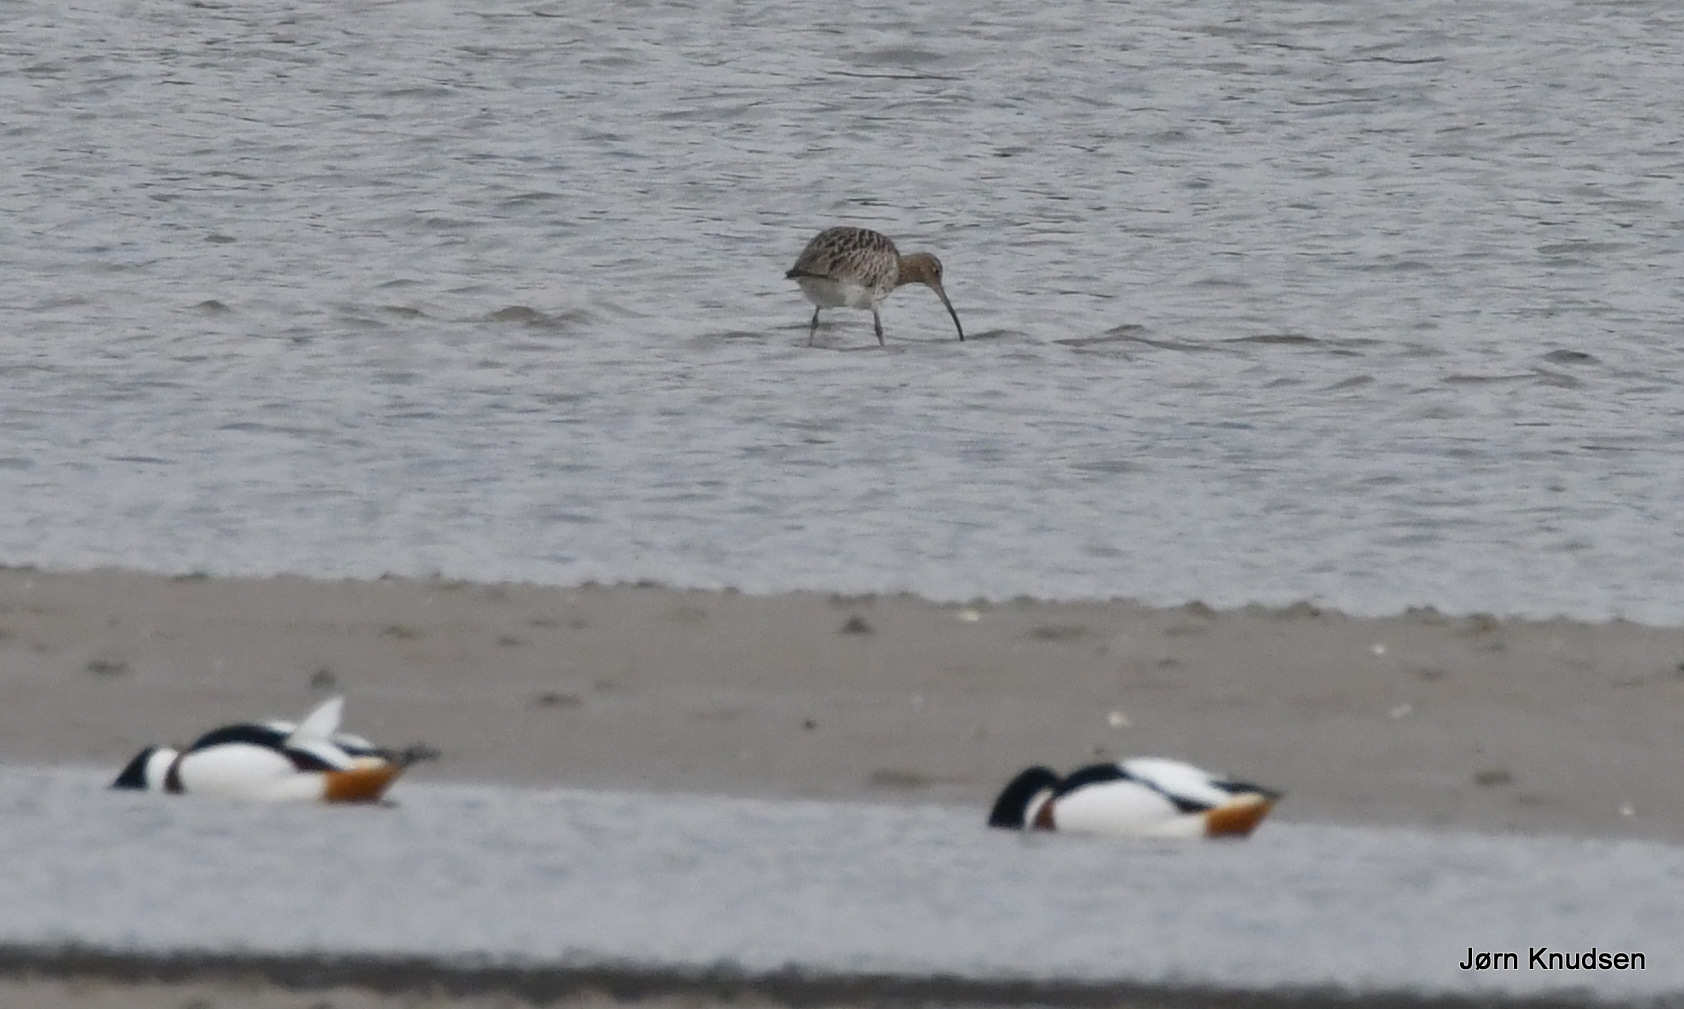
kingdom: Animalia
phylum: Chordata
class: Aves
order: Anseriformes
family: Anatidae
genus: Tadorna
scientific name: Tadorna tadorna
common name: Gravand
